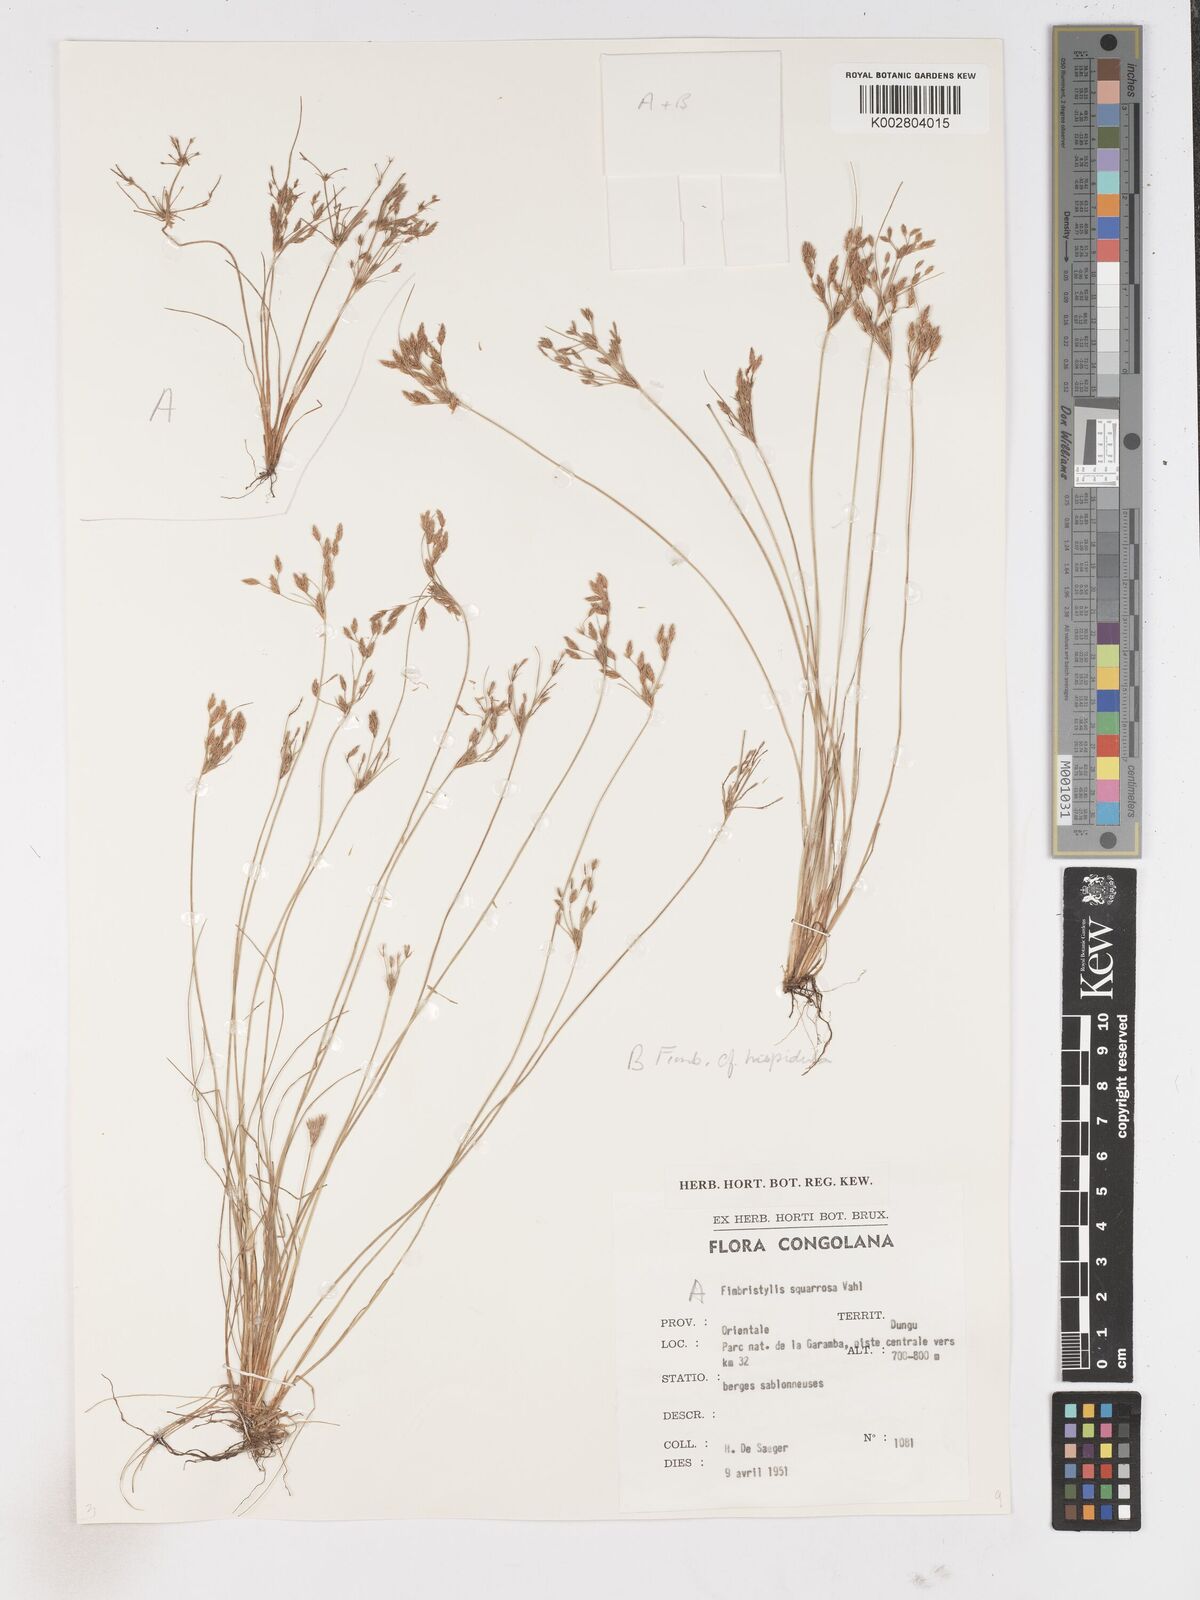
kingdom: Plantae
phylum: Tracheophyta
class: Liliopsida
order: Poales
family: Cyperaceae
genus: Fimbristylis
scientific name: Fimbristylis squarrosa
